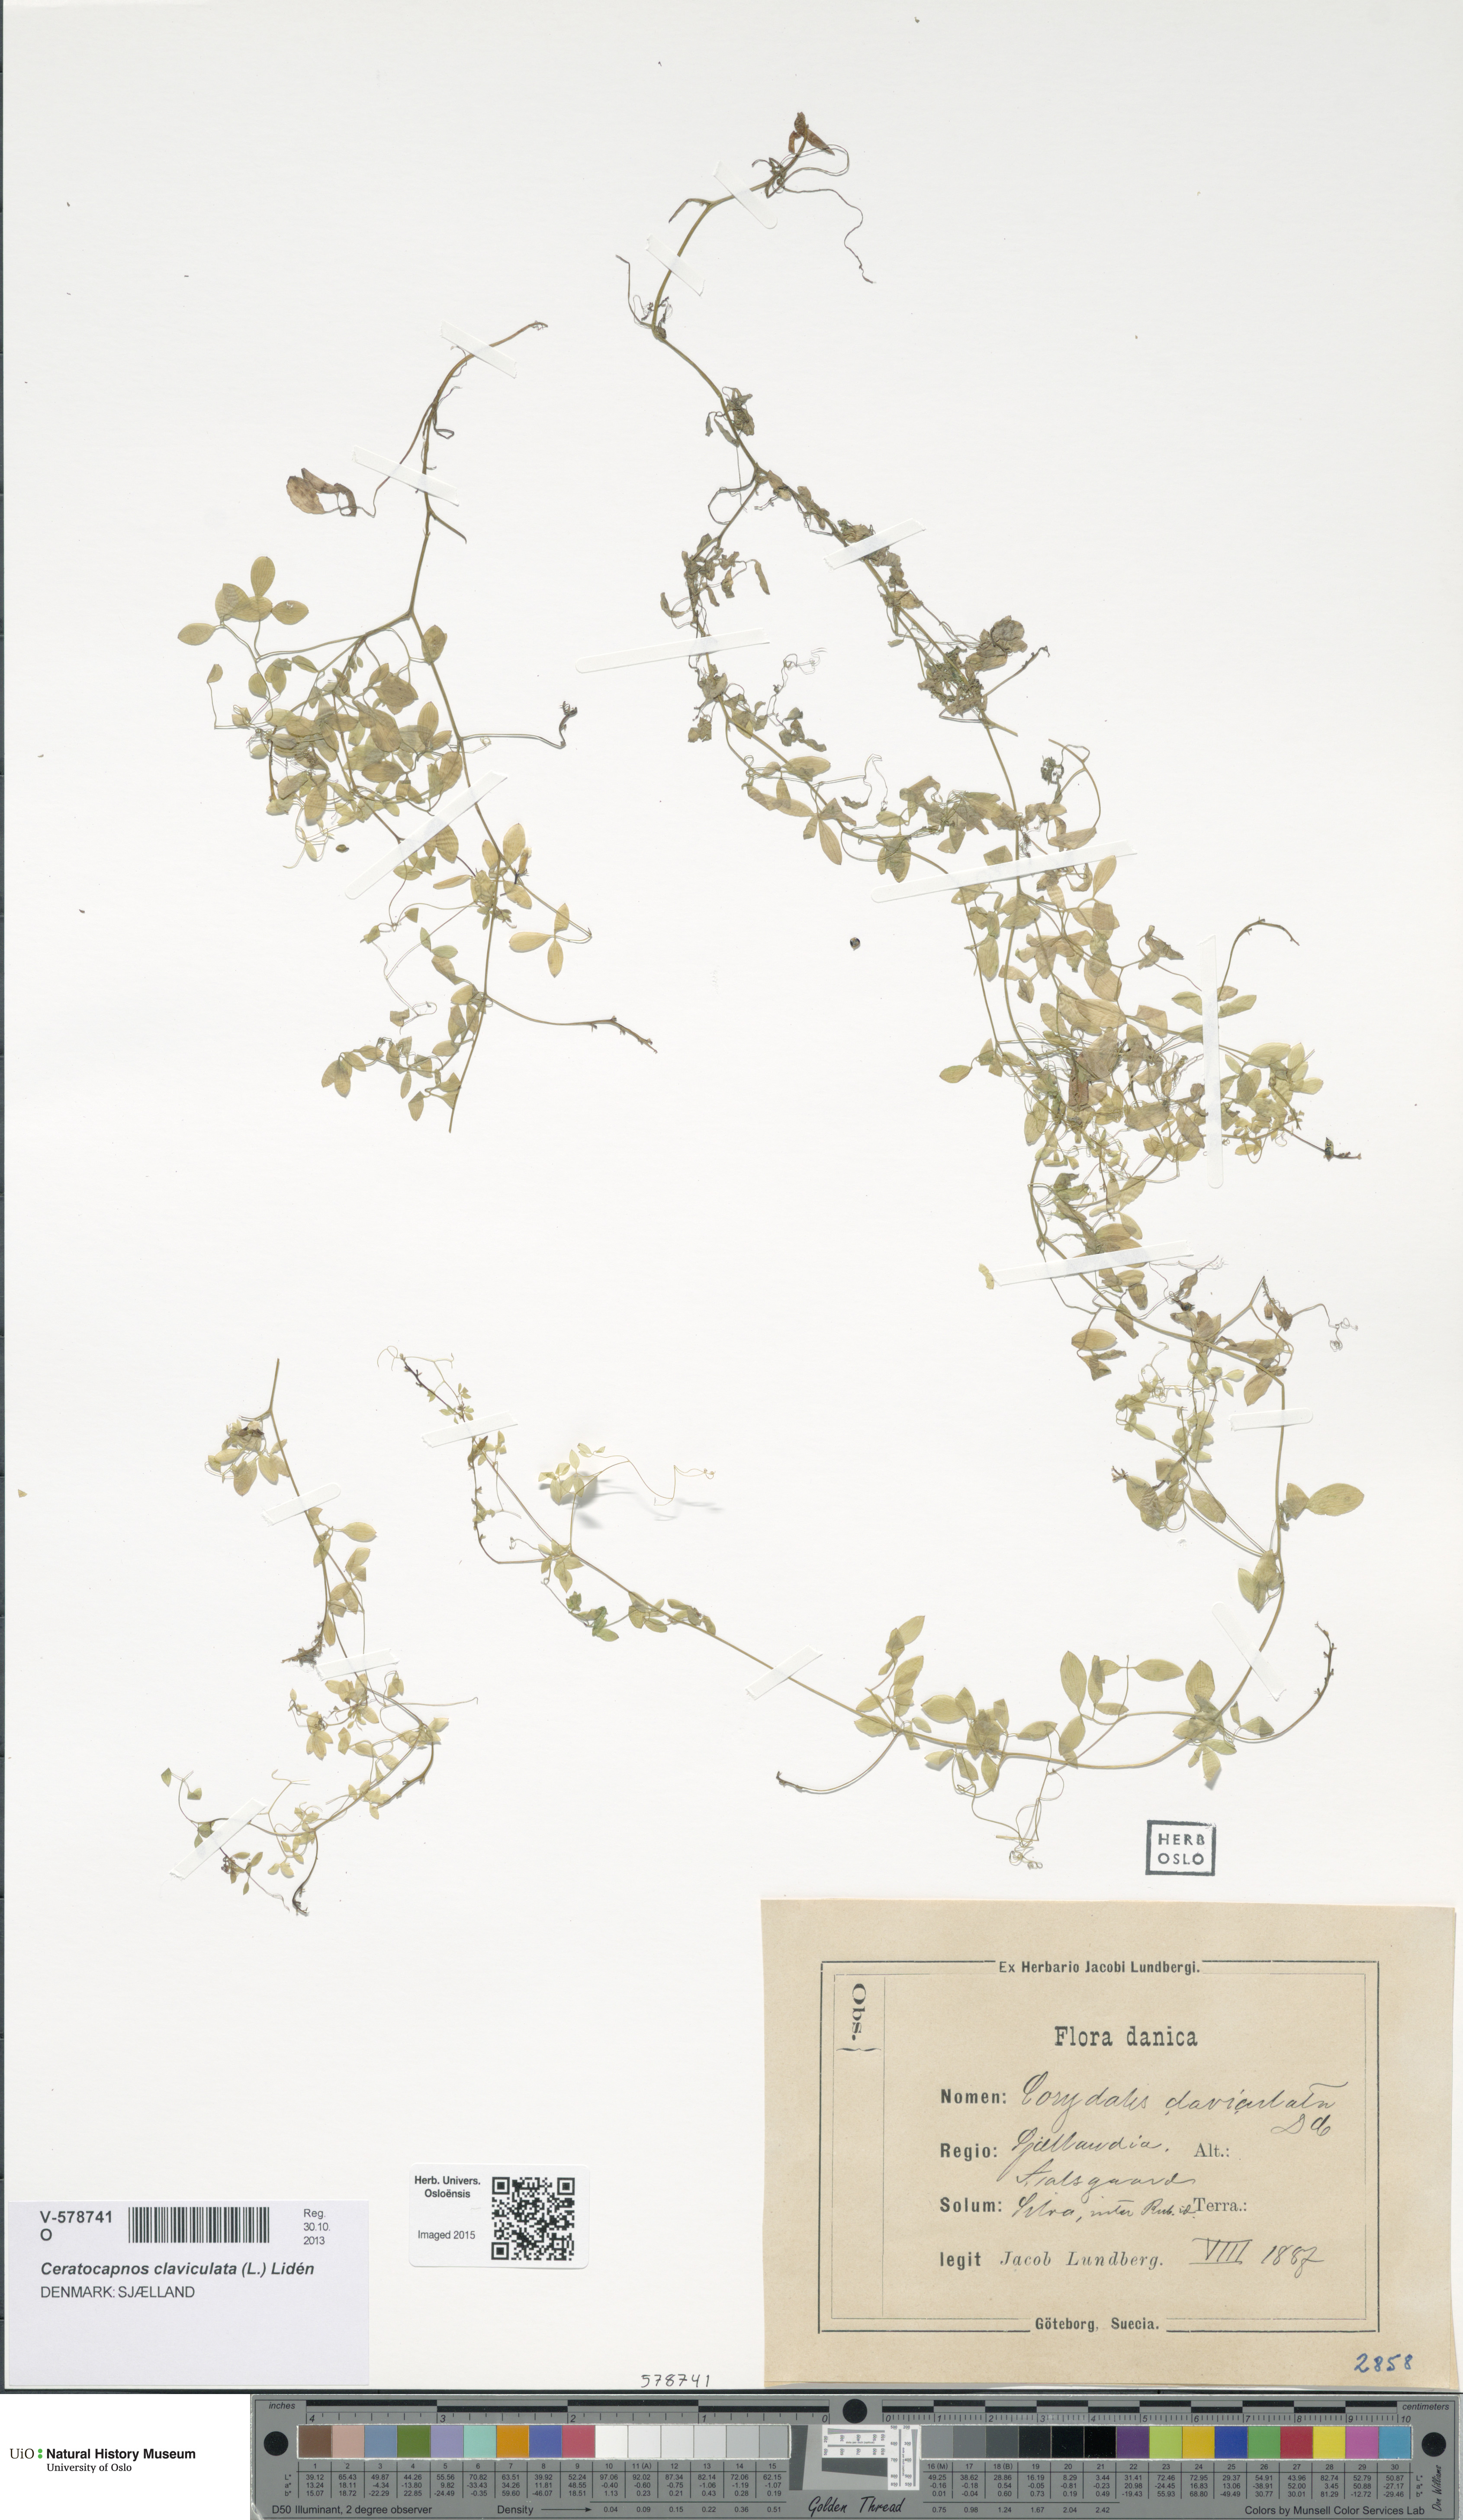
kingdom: Plantae
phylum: Tracheophyta
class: Magnoliopsida
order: Ranunculales
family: Papaveraceae
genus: Ceratocapnos
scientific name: Ceratocapnos claviculata
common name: Climbing corydalis
